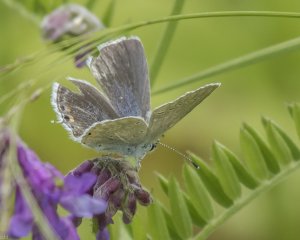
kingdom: Animalia
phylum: Arthropoda
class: Insecta
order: Lepidoptera
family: Lycaenidae
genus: Elkalyce
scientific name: Elkalyce amyntula
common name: Western Tailed-Blue
